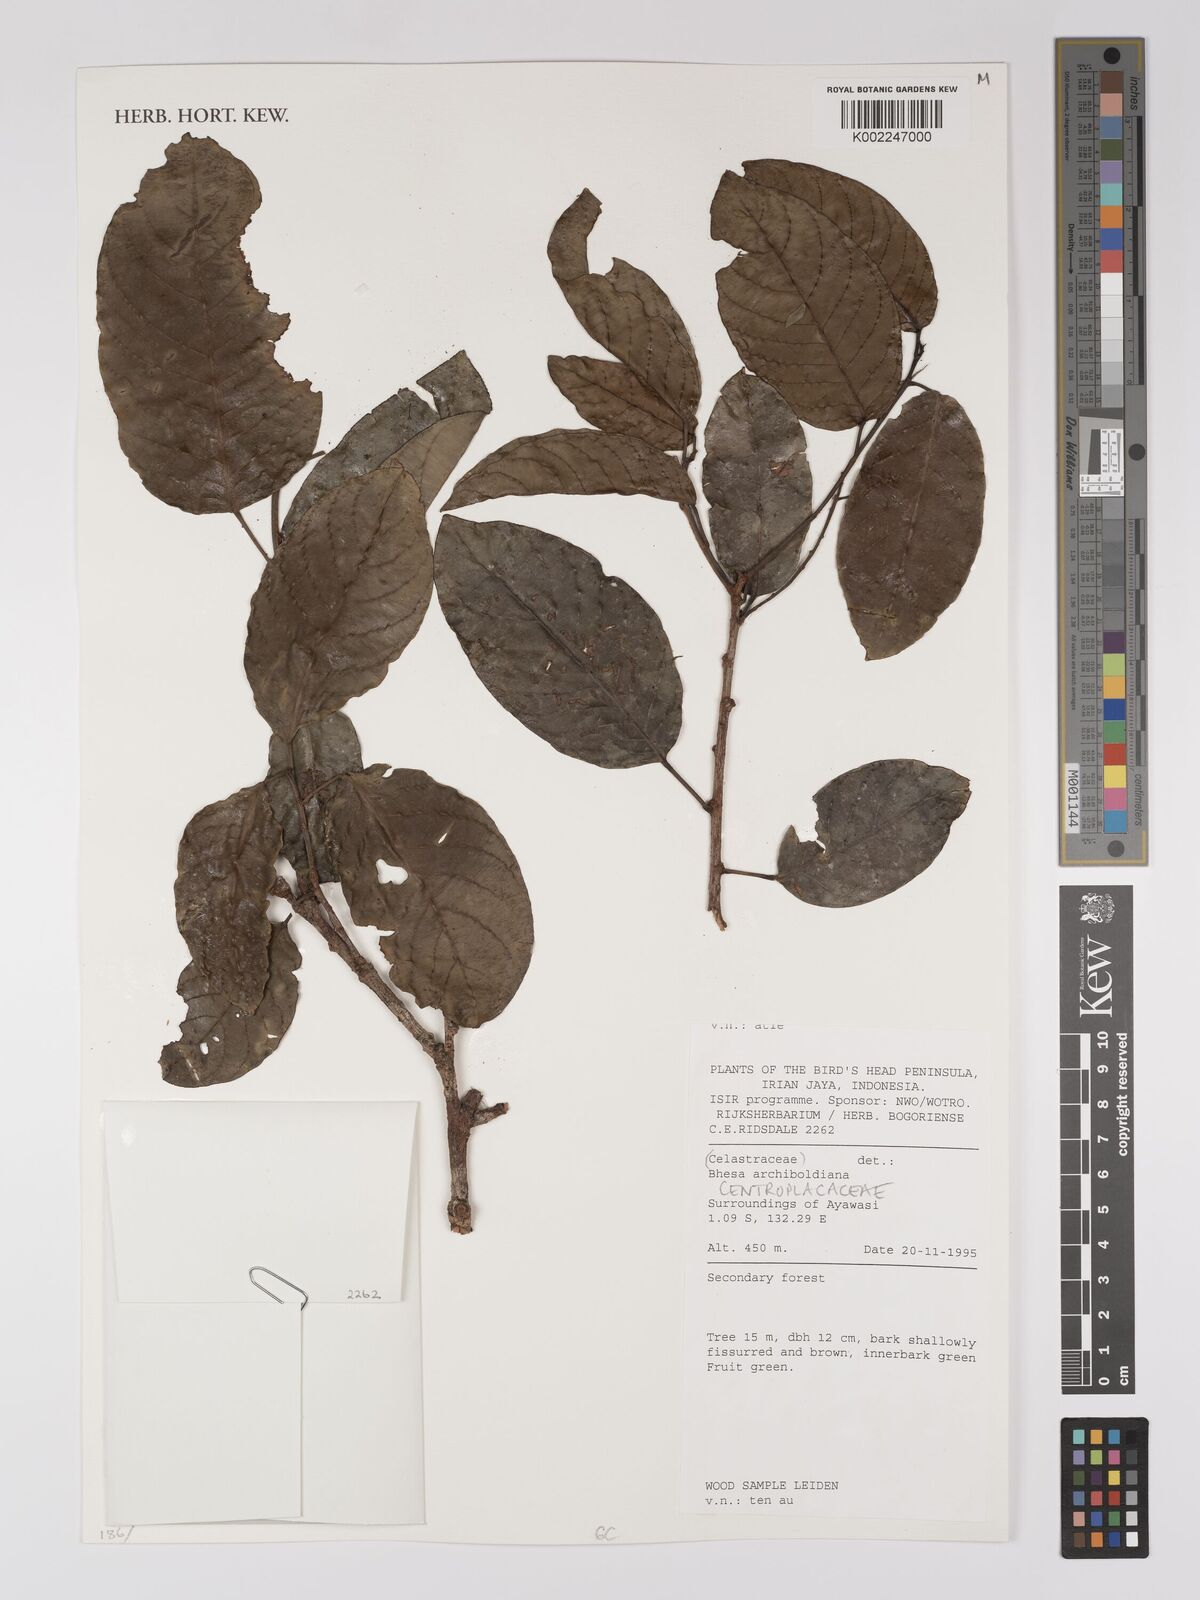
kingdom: Plantae
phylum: Tracheophyta
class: Magnoliopsida
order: Malpighiales
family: Centroplacaceae
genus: Bhesa
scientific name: Bhesa archboldiana
